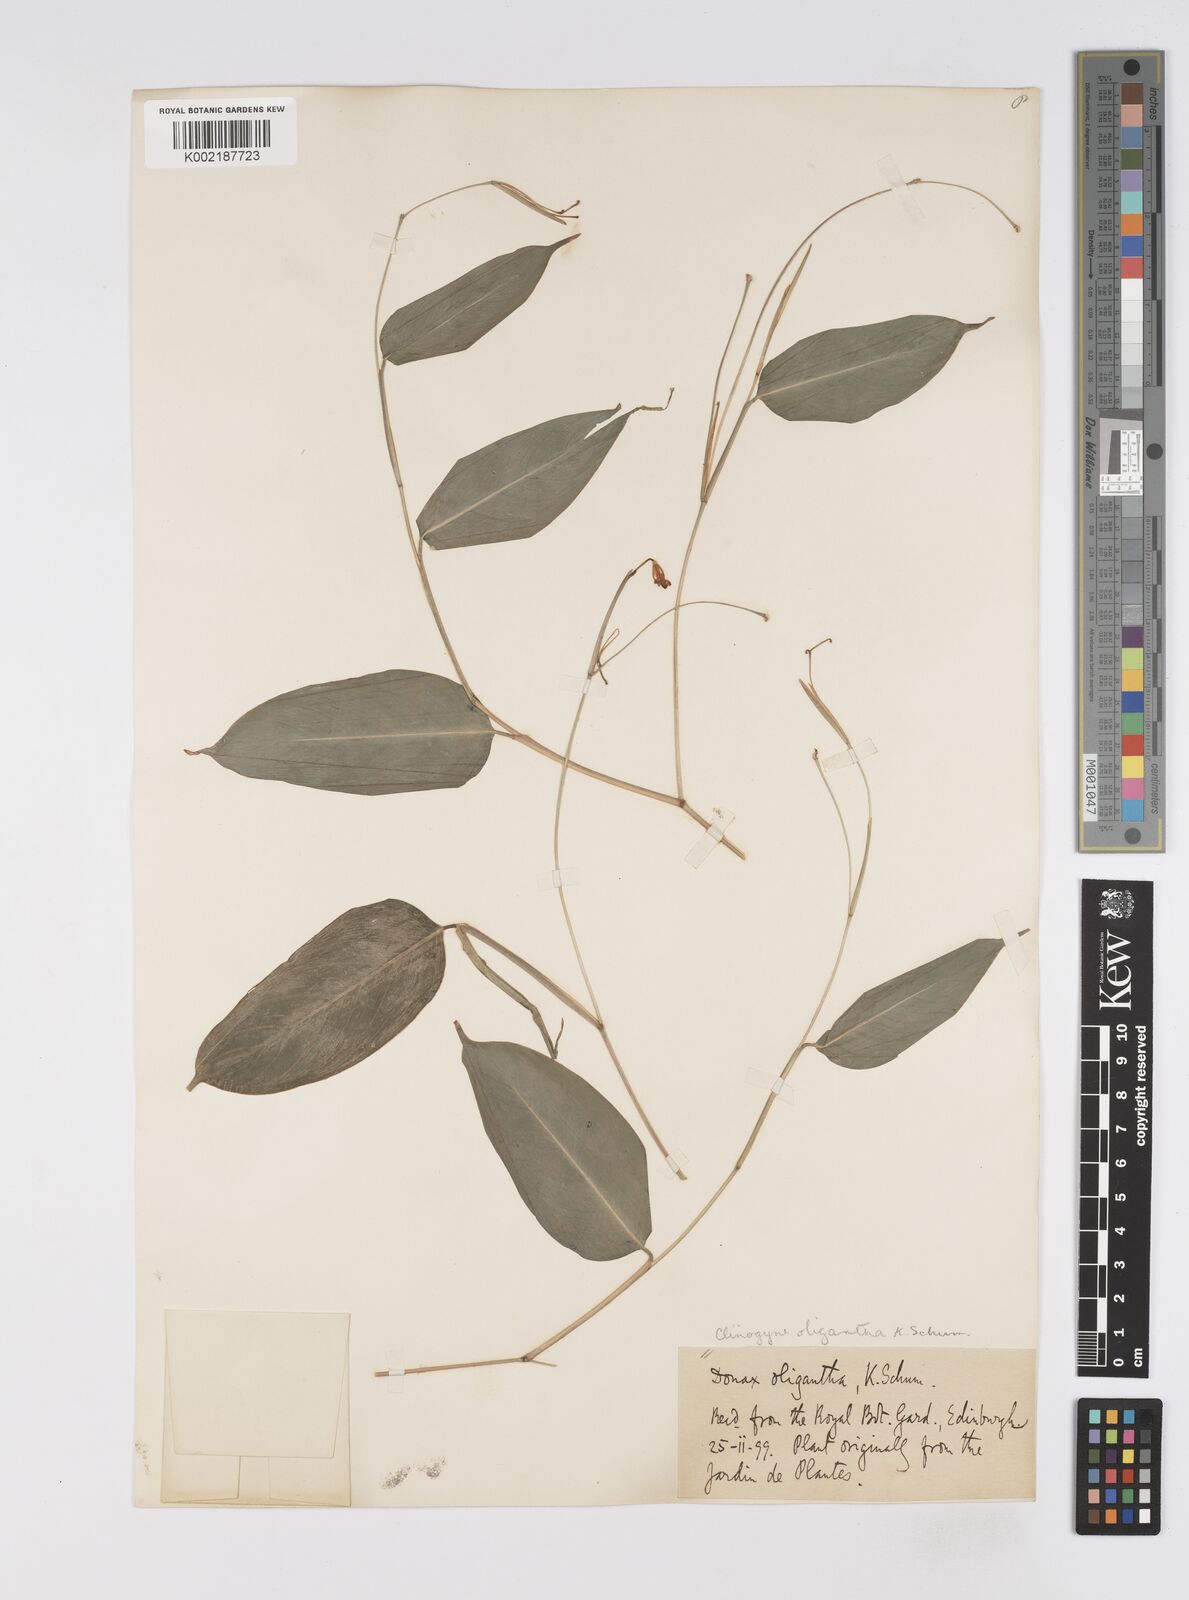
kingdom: Plantae
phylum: Tracheophyta
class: Liliopsida
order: Zingiberales
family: Marantaceae
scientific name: Marantaceae
